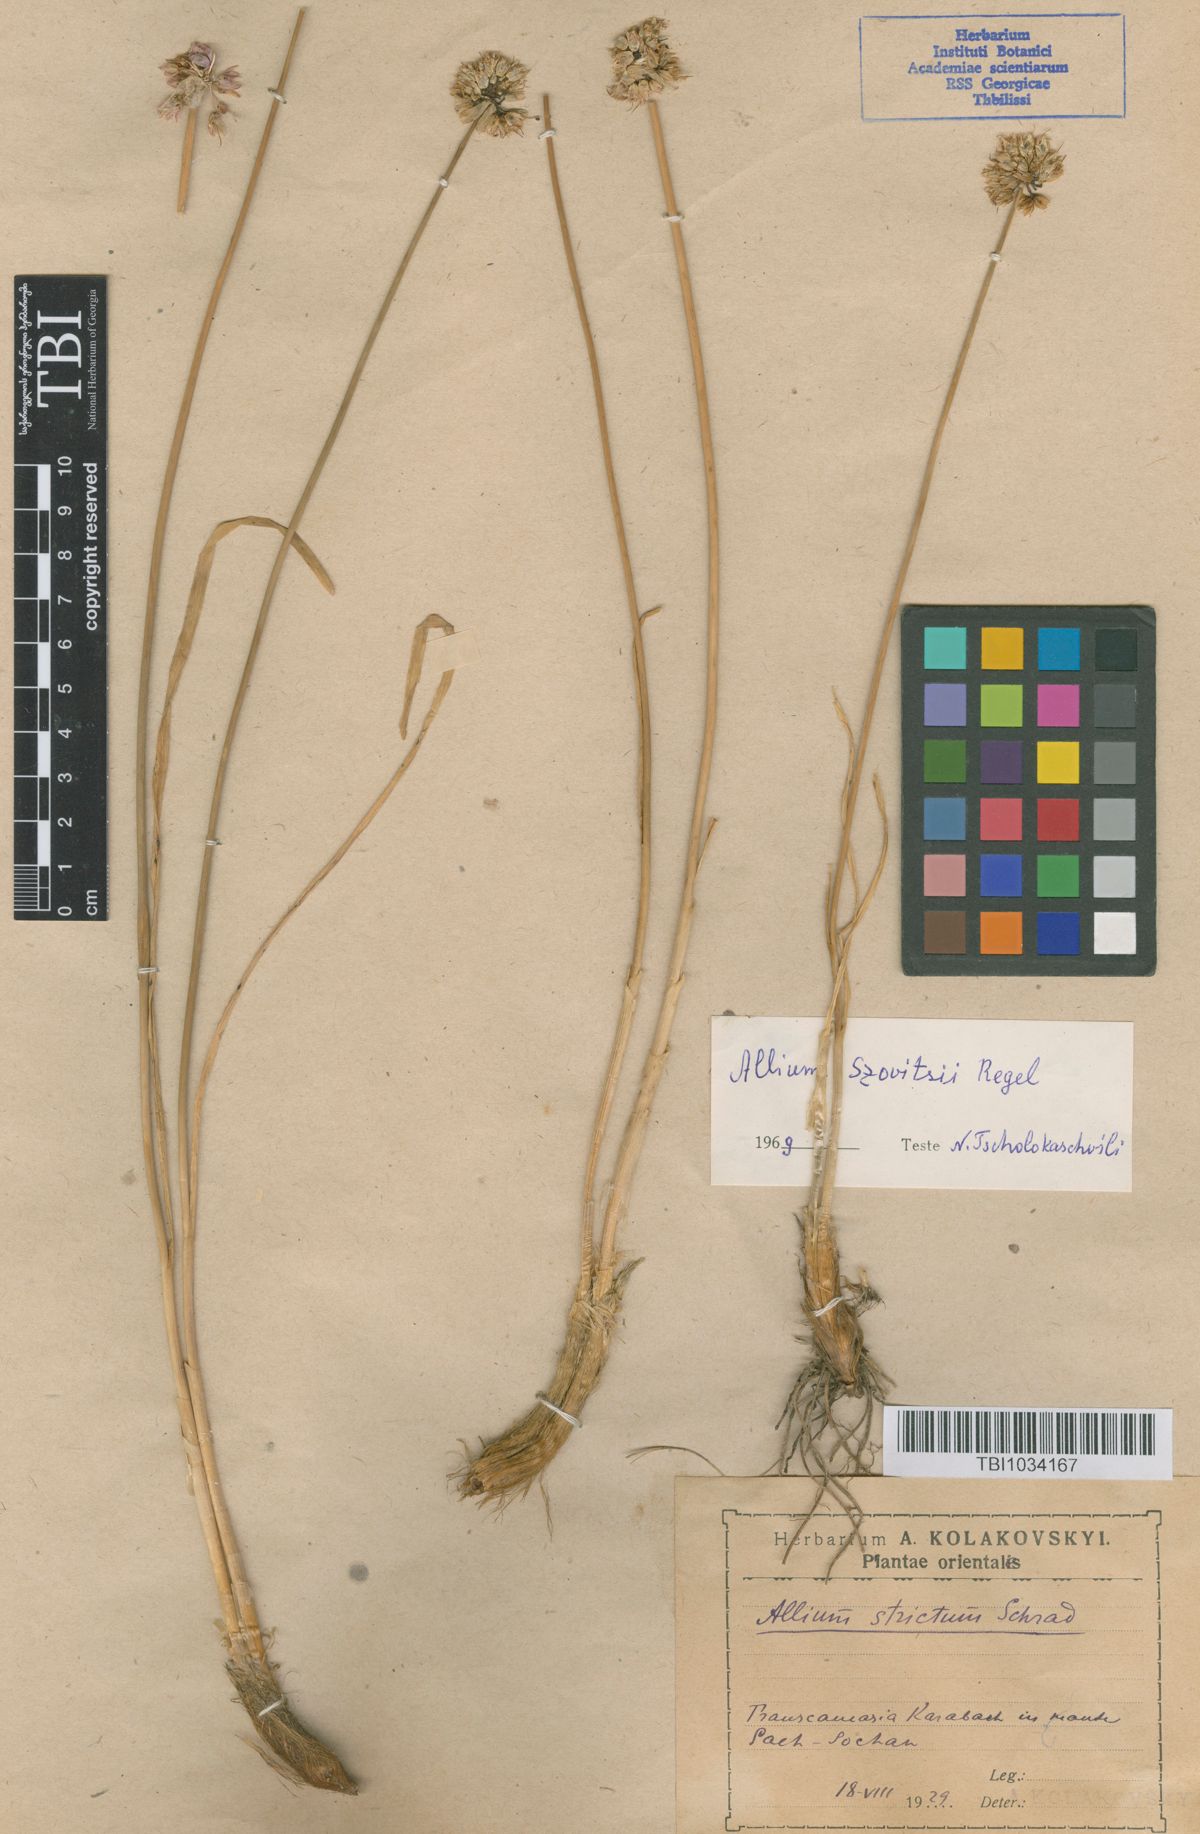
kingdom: Plantae
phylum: Tracheophyta
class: Liliopsida
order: Asparagales
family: Amaryllidaceae
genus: Allium
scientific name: Allium szovitsii
